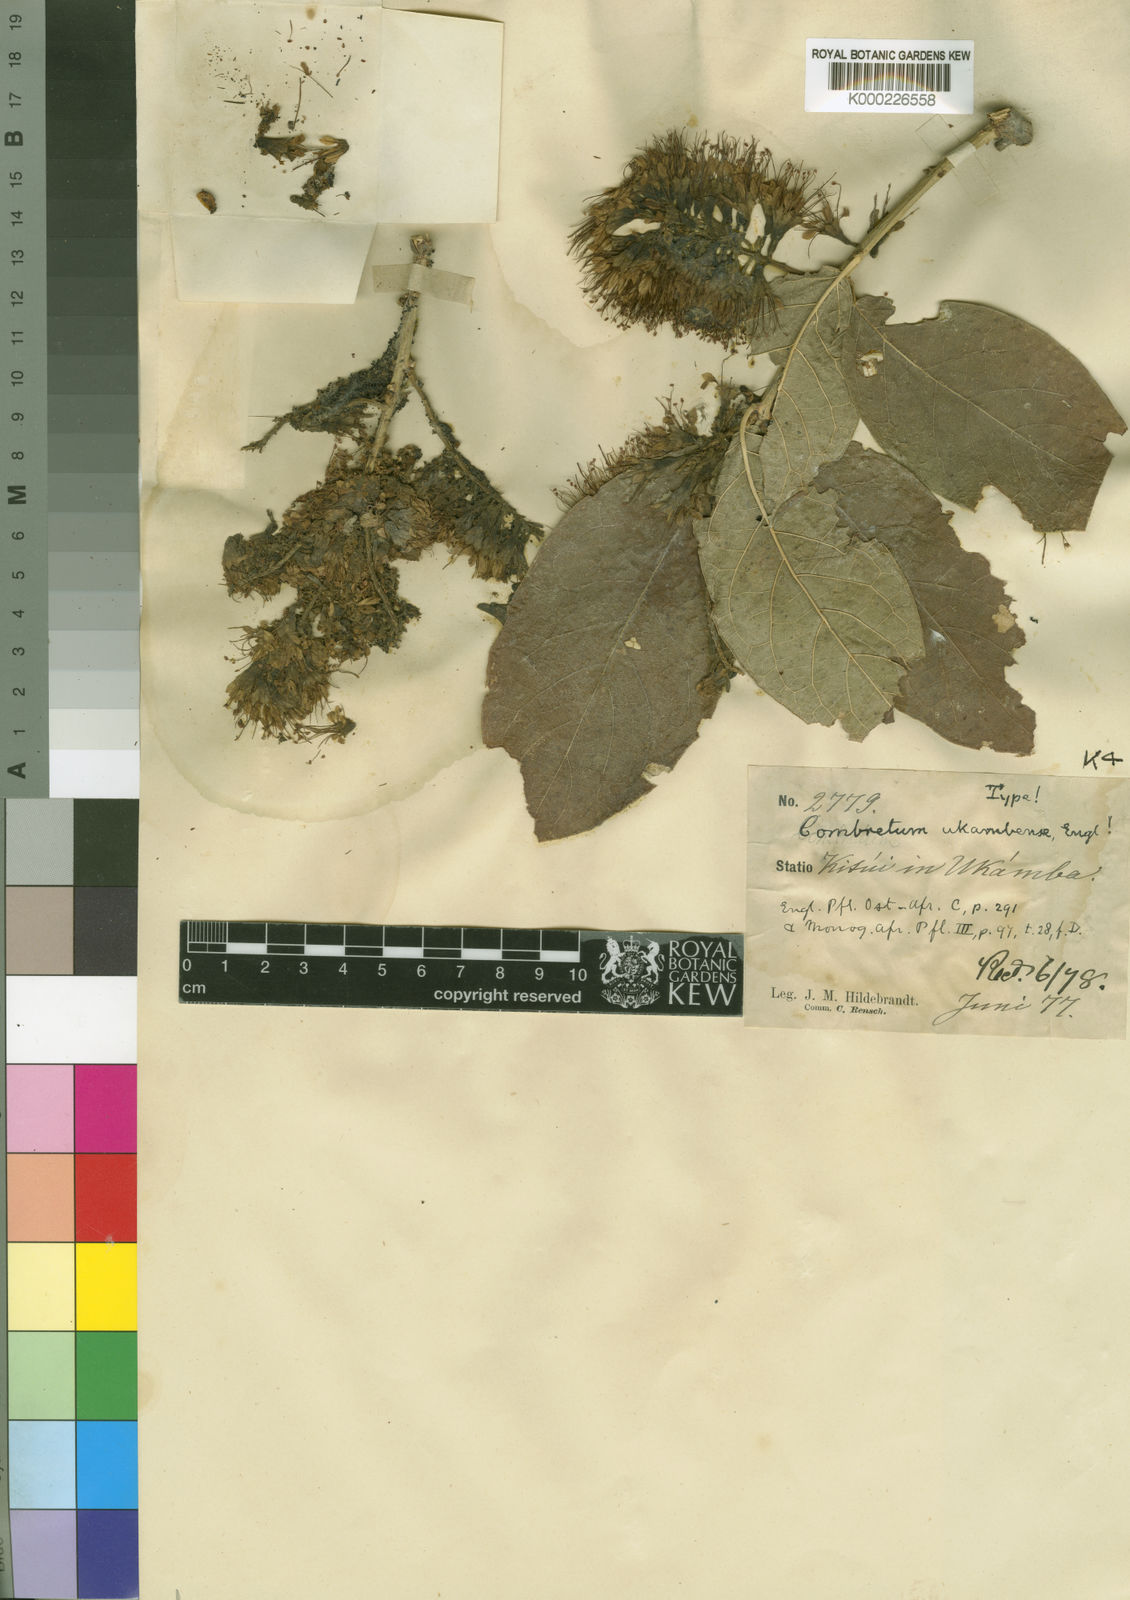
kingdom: Plantae
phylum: Tracheophyta
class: Magnoliopsida
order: Myrtales
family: Combretaceae
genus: Combretum
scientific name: Combretum mossambicense
